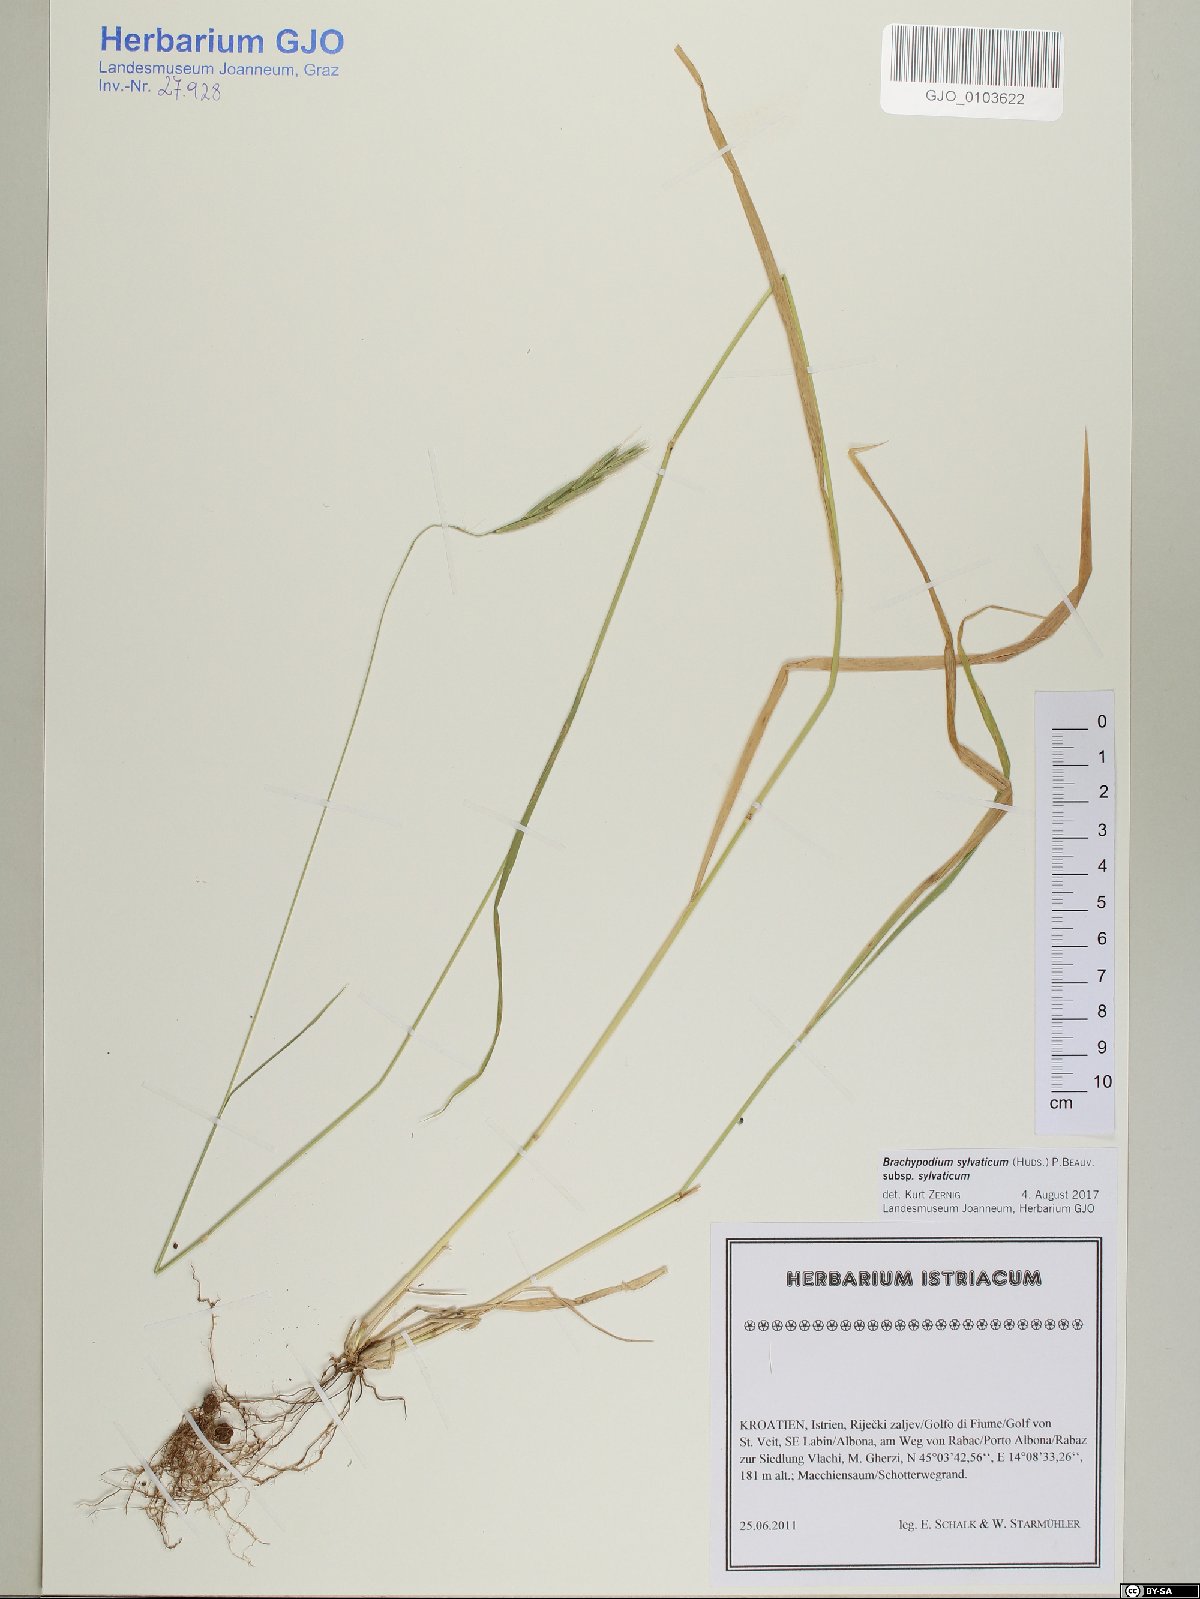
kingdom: Plantae
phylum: Tracheophyta
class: Liliopsida
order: Poales
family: Poaceae
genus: Brachypodium
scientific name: Brachypodium sylvaticum
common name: False-brome
